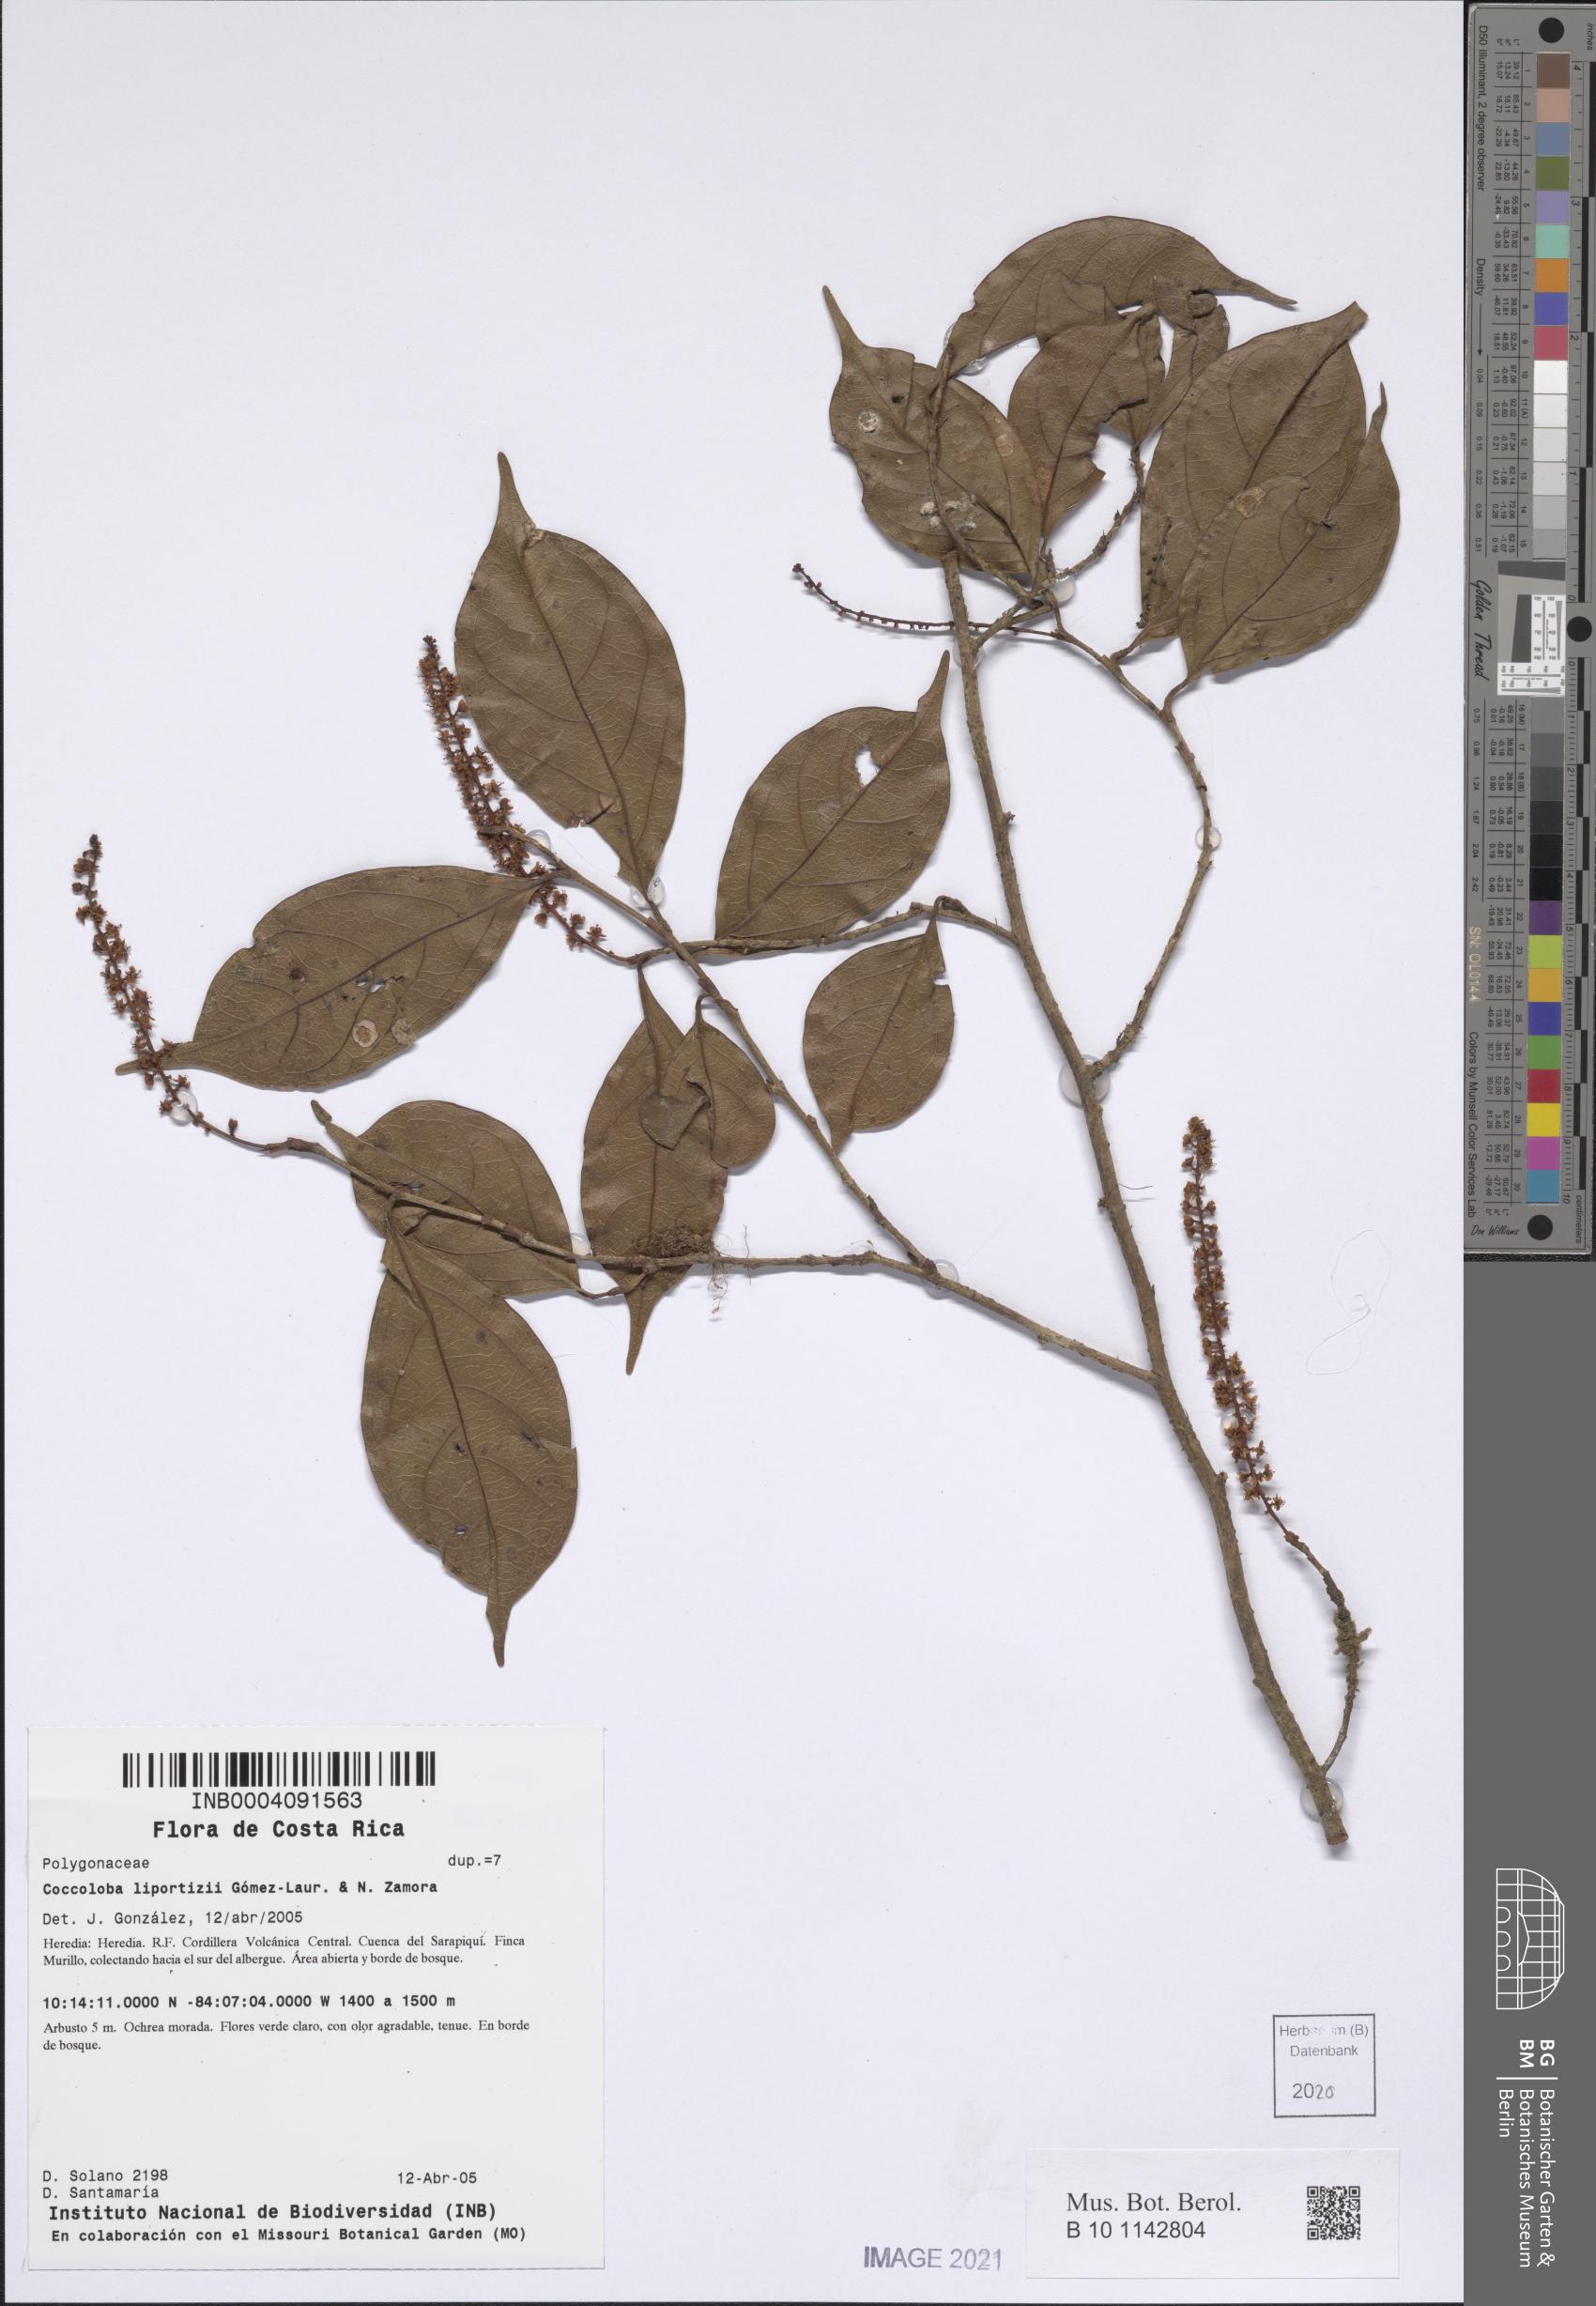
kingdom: Plantae
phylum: Tracheophyta
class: Magnoliopsida
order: Caryophyllales
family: Polygonaceae
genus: Coccoloba
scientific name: Coccoloba liportizii
